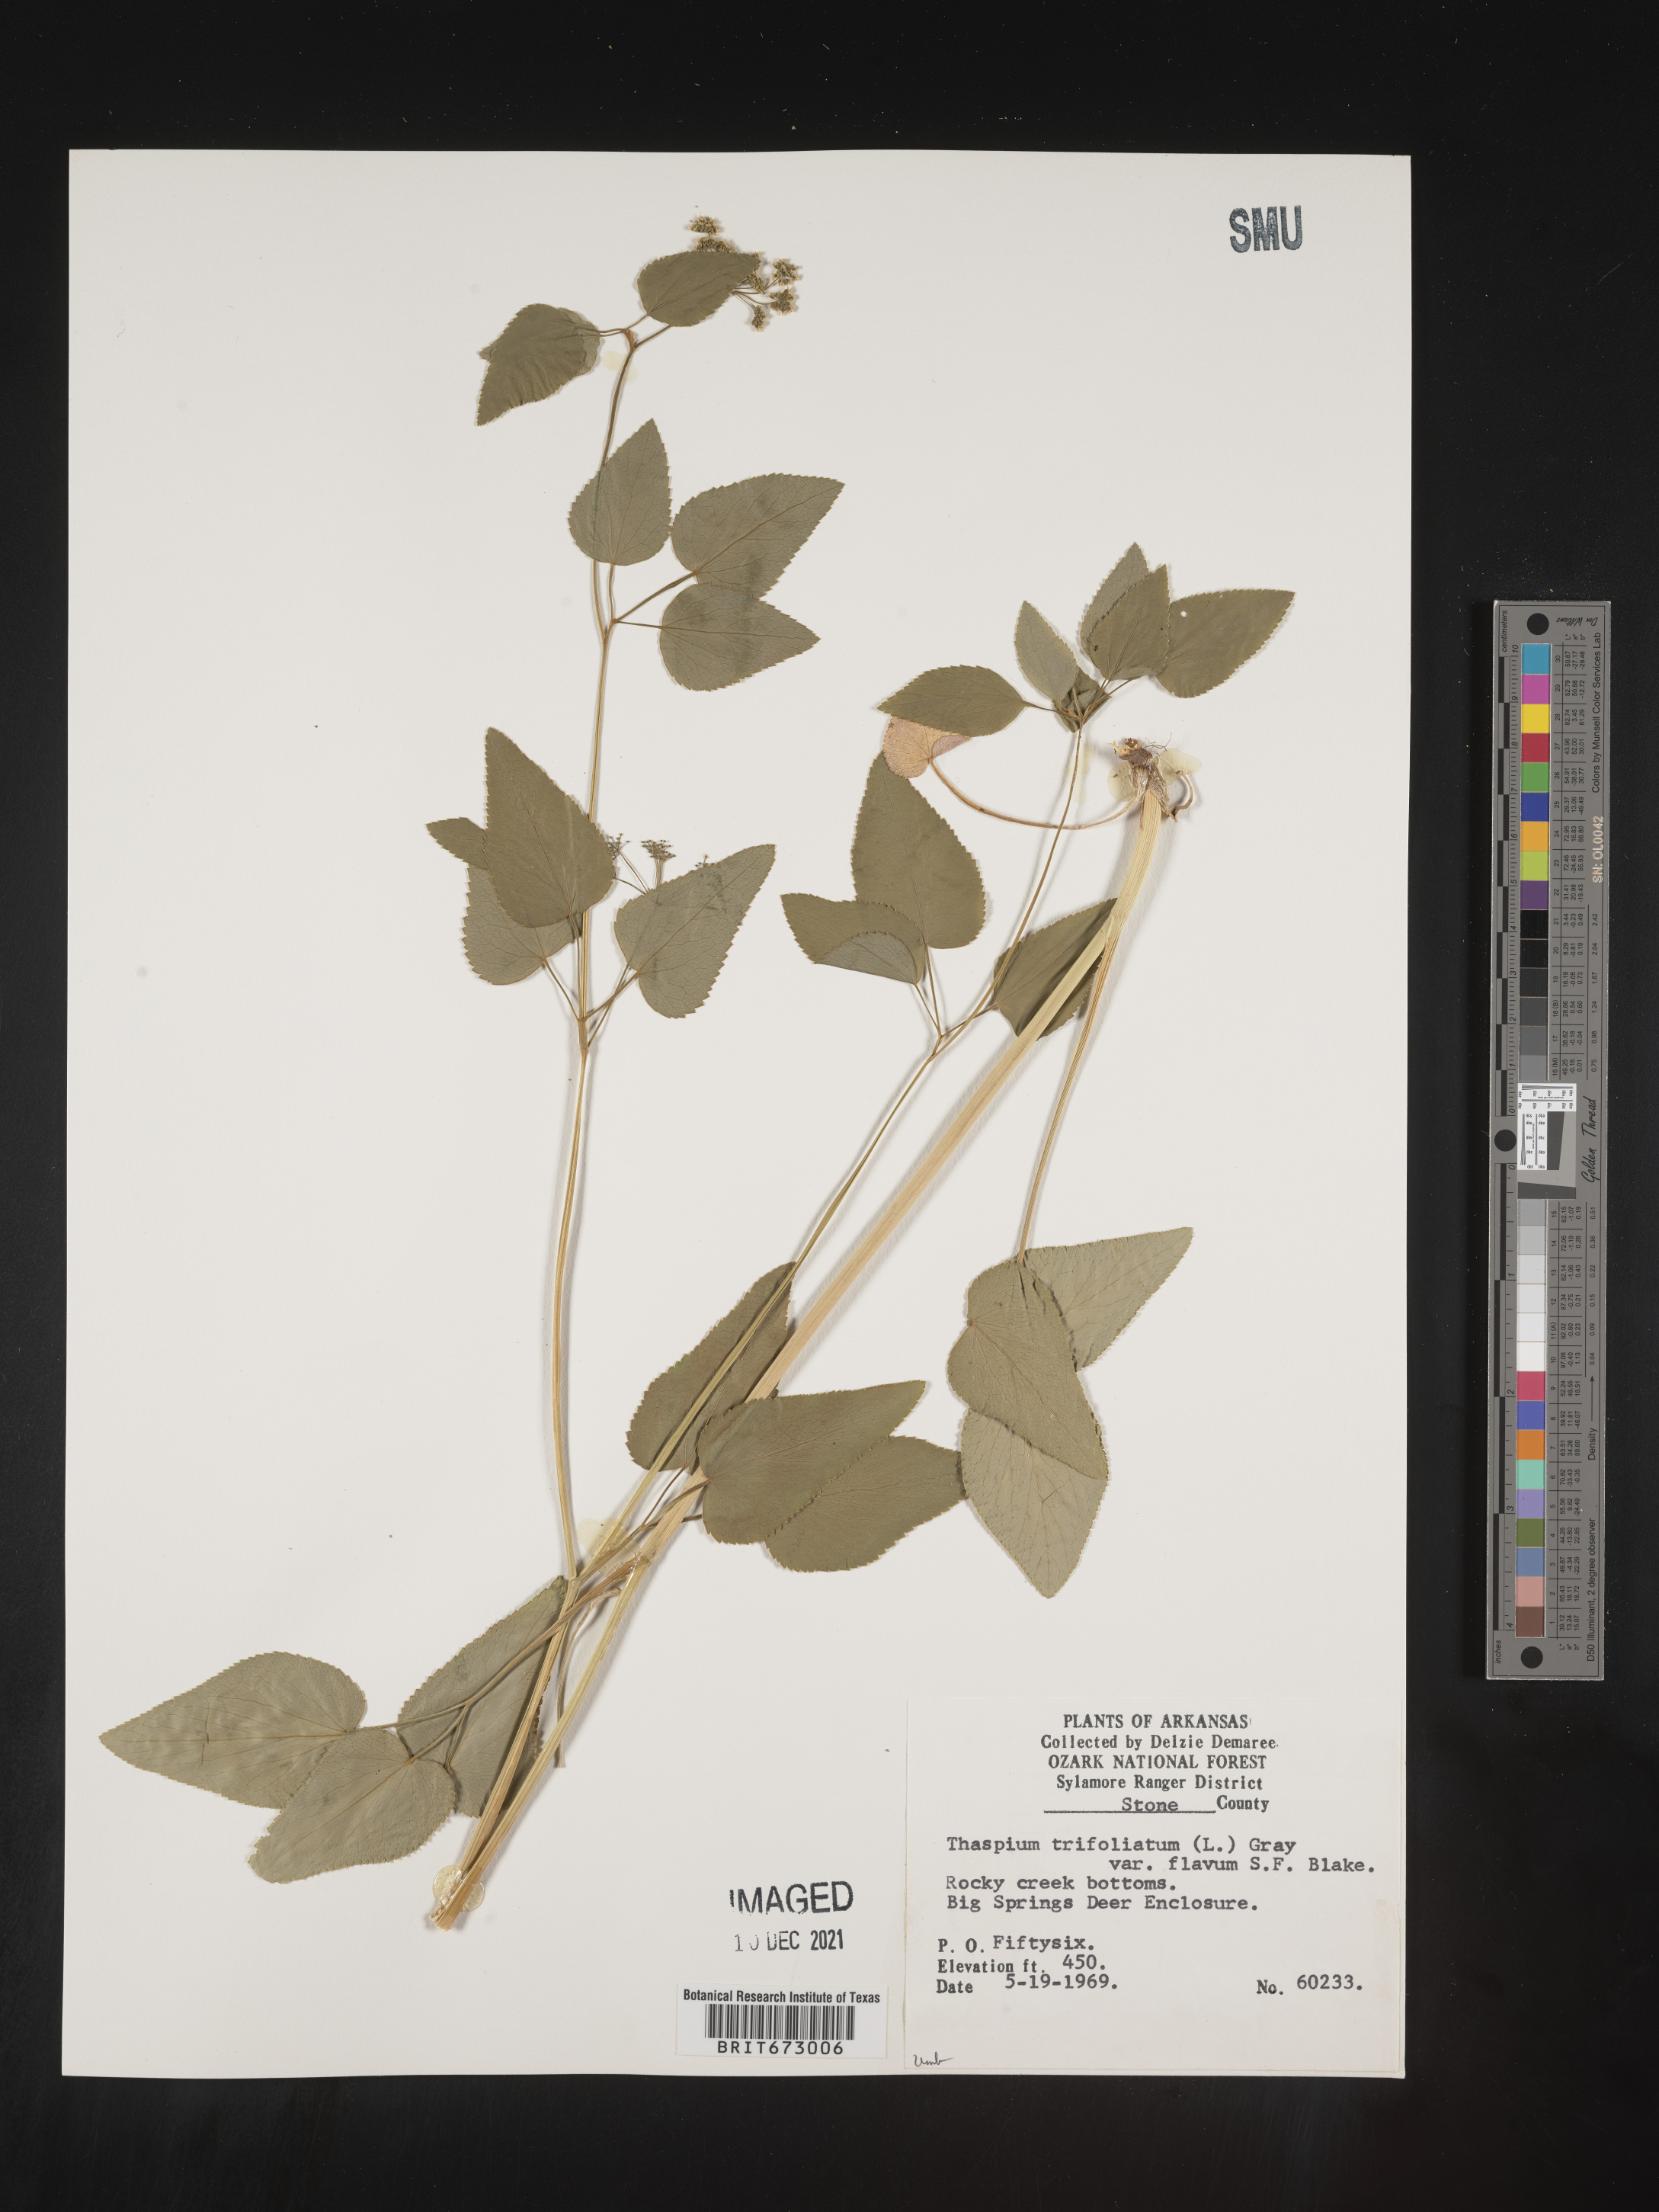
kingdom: Plantae
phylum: Tracheophyta
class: Magnoliopsida
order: Apiales
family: Apiaceae
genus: Thaspium
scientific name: Thaspium
